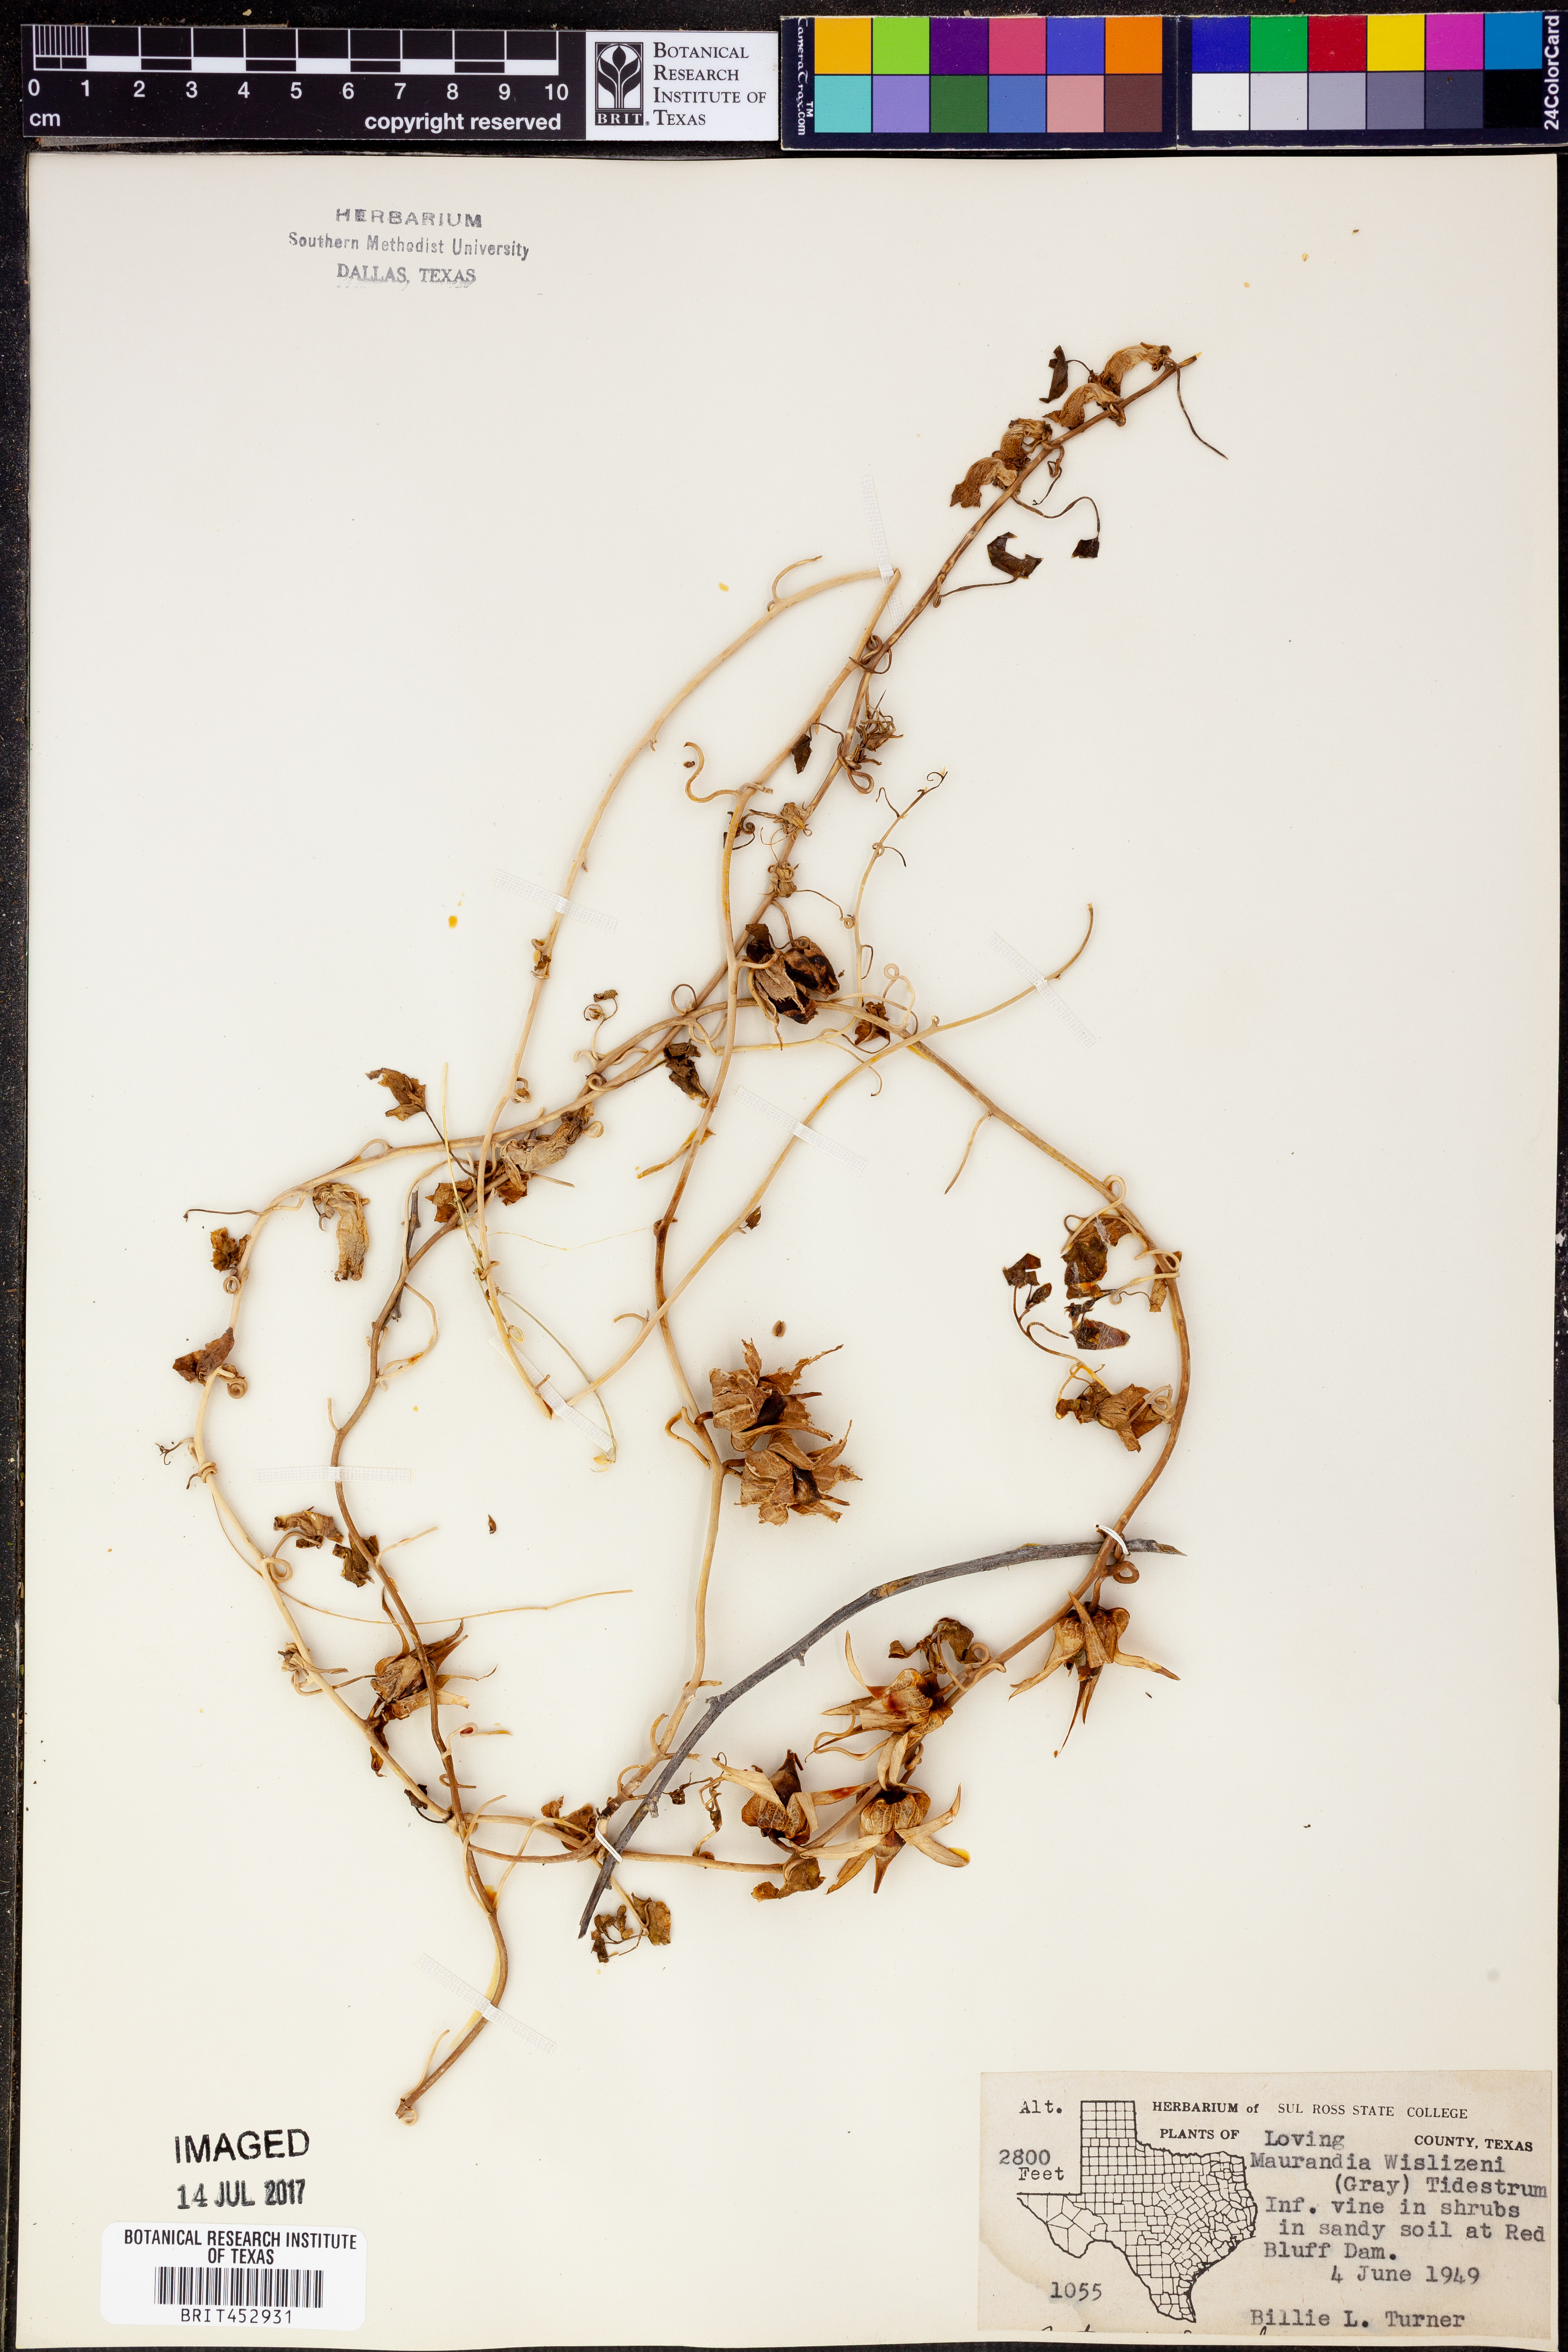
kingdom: Plantae
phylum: Tracheophyta
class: Magnoliopsida
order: Lamiales
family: Plantaginaceae
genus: Epixiphium
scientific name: Epixiphium wislizeni
